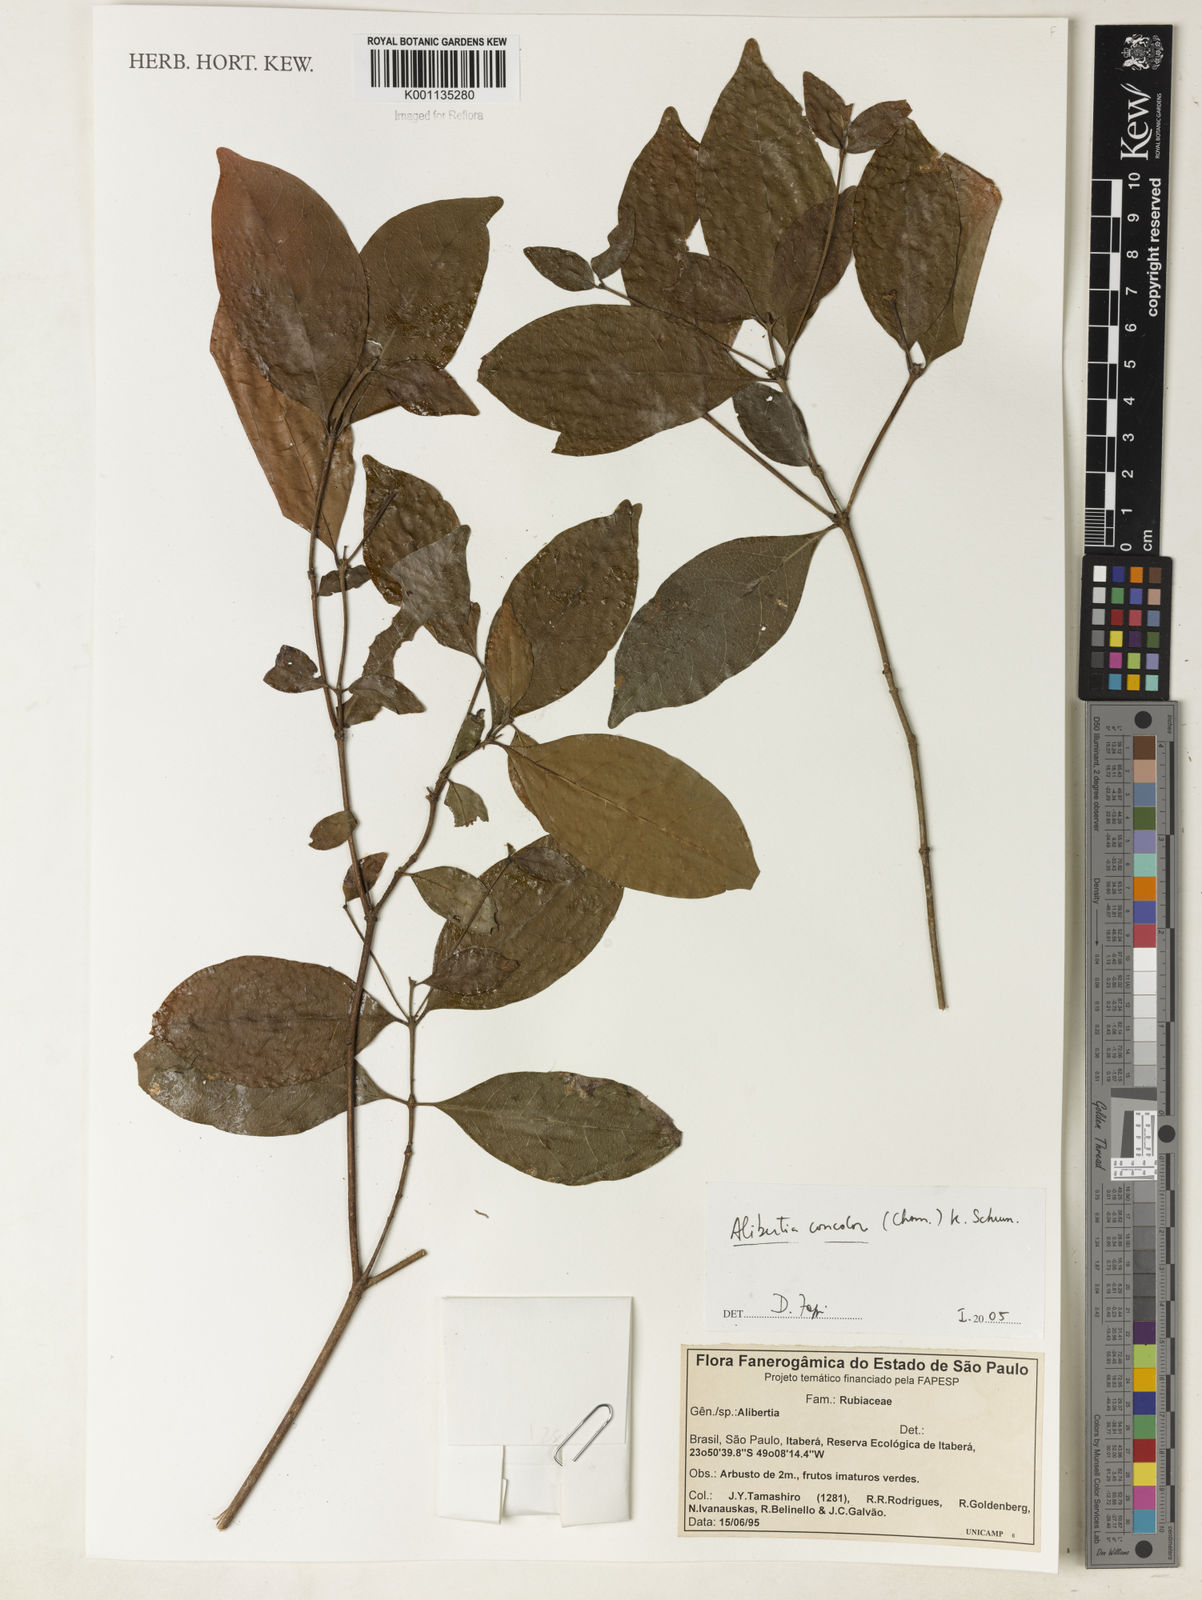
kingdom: Plantae
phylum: Tracheophyta
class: Magnoliopsida
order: Gentianales
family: Rubiaceae
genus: Cordiera
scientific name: Cordiera concolor
